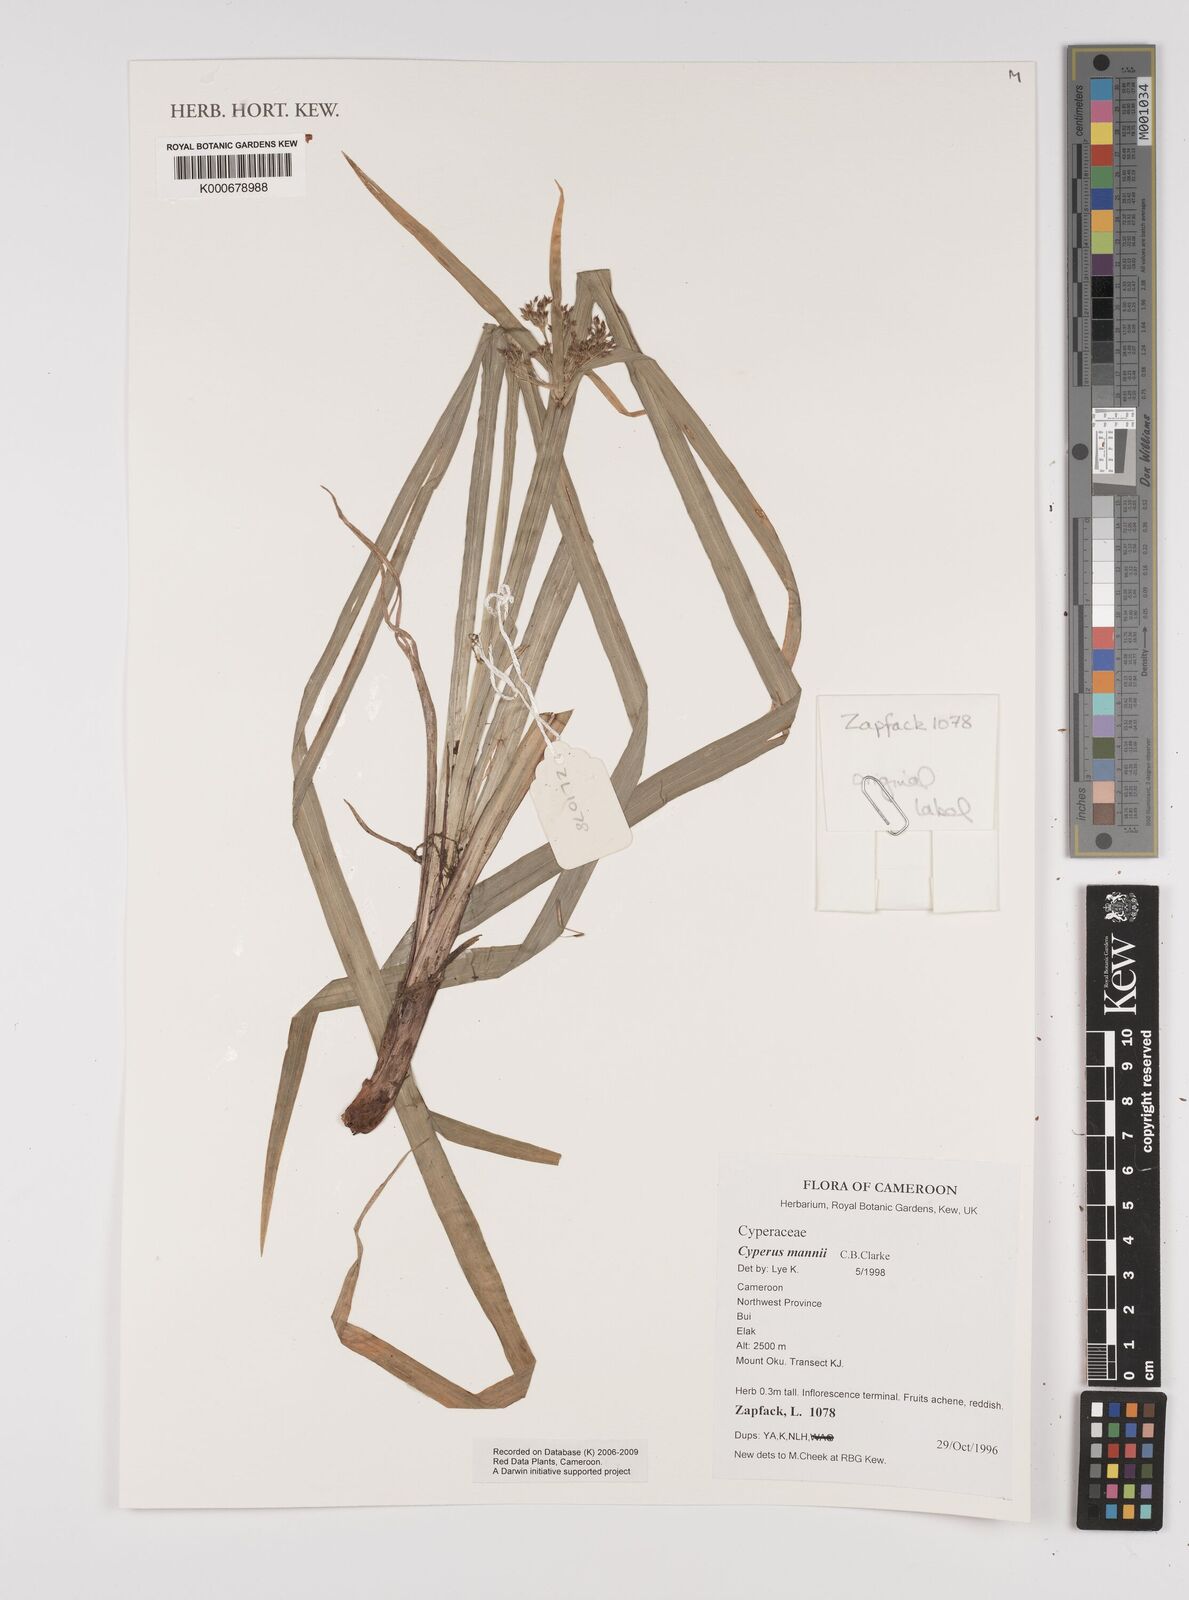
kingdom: Plantae
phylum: Tracheophyta
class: Liliopsida
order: Poales
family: Cyperaceae
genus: Cyperus
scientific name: Cyperus baronii
